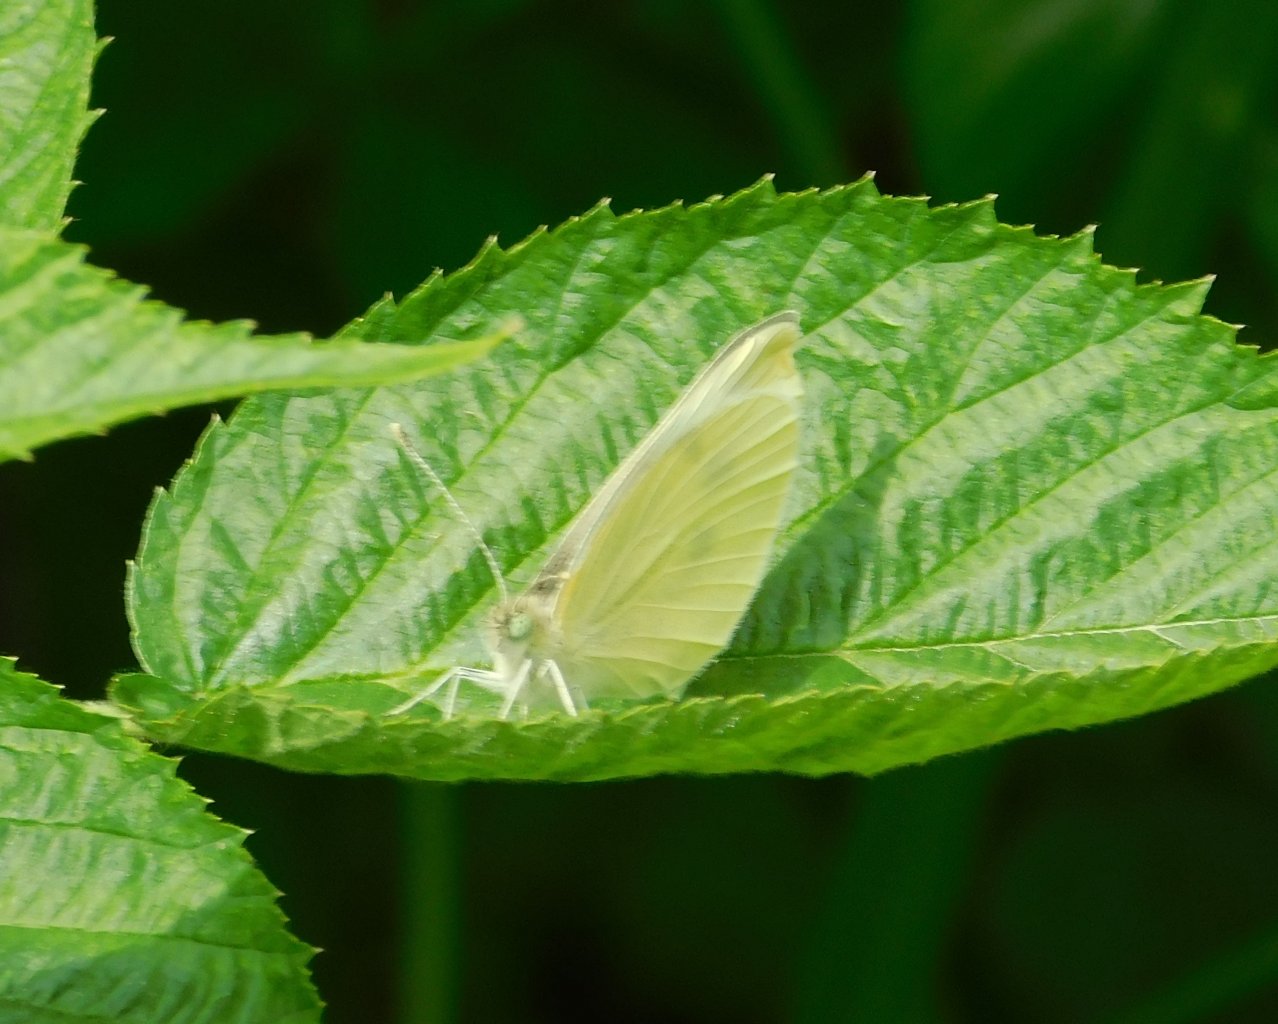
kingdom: Animalia
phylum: Arthropoda
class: Insecta
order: Lepidoptera
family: Pieridae
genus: Pieris
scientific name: Pieris rapae
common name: Cabbage White
